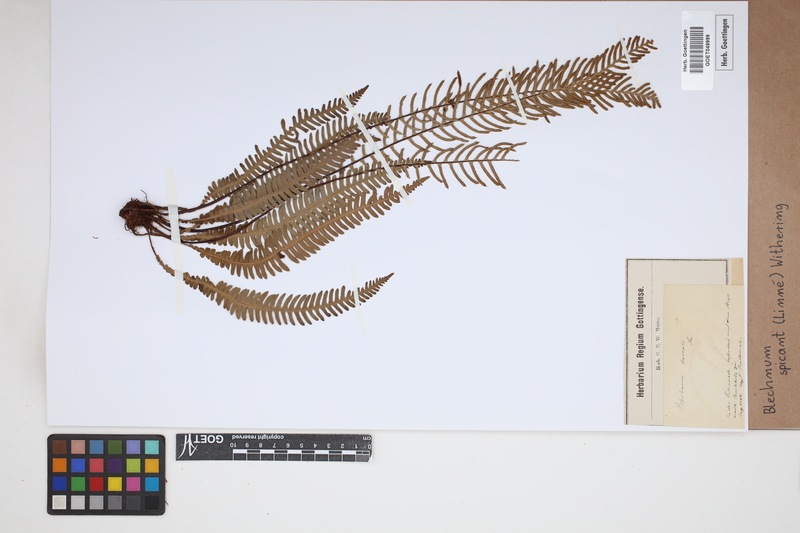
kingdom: Plantae
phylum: Tracheophyta
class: Polypodiopsida
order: Polypodiales
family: Blechnaceae
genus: Struthiopteris
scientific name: Struthiopteris spicant
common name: Deer fern
